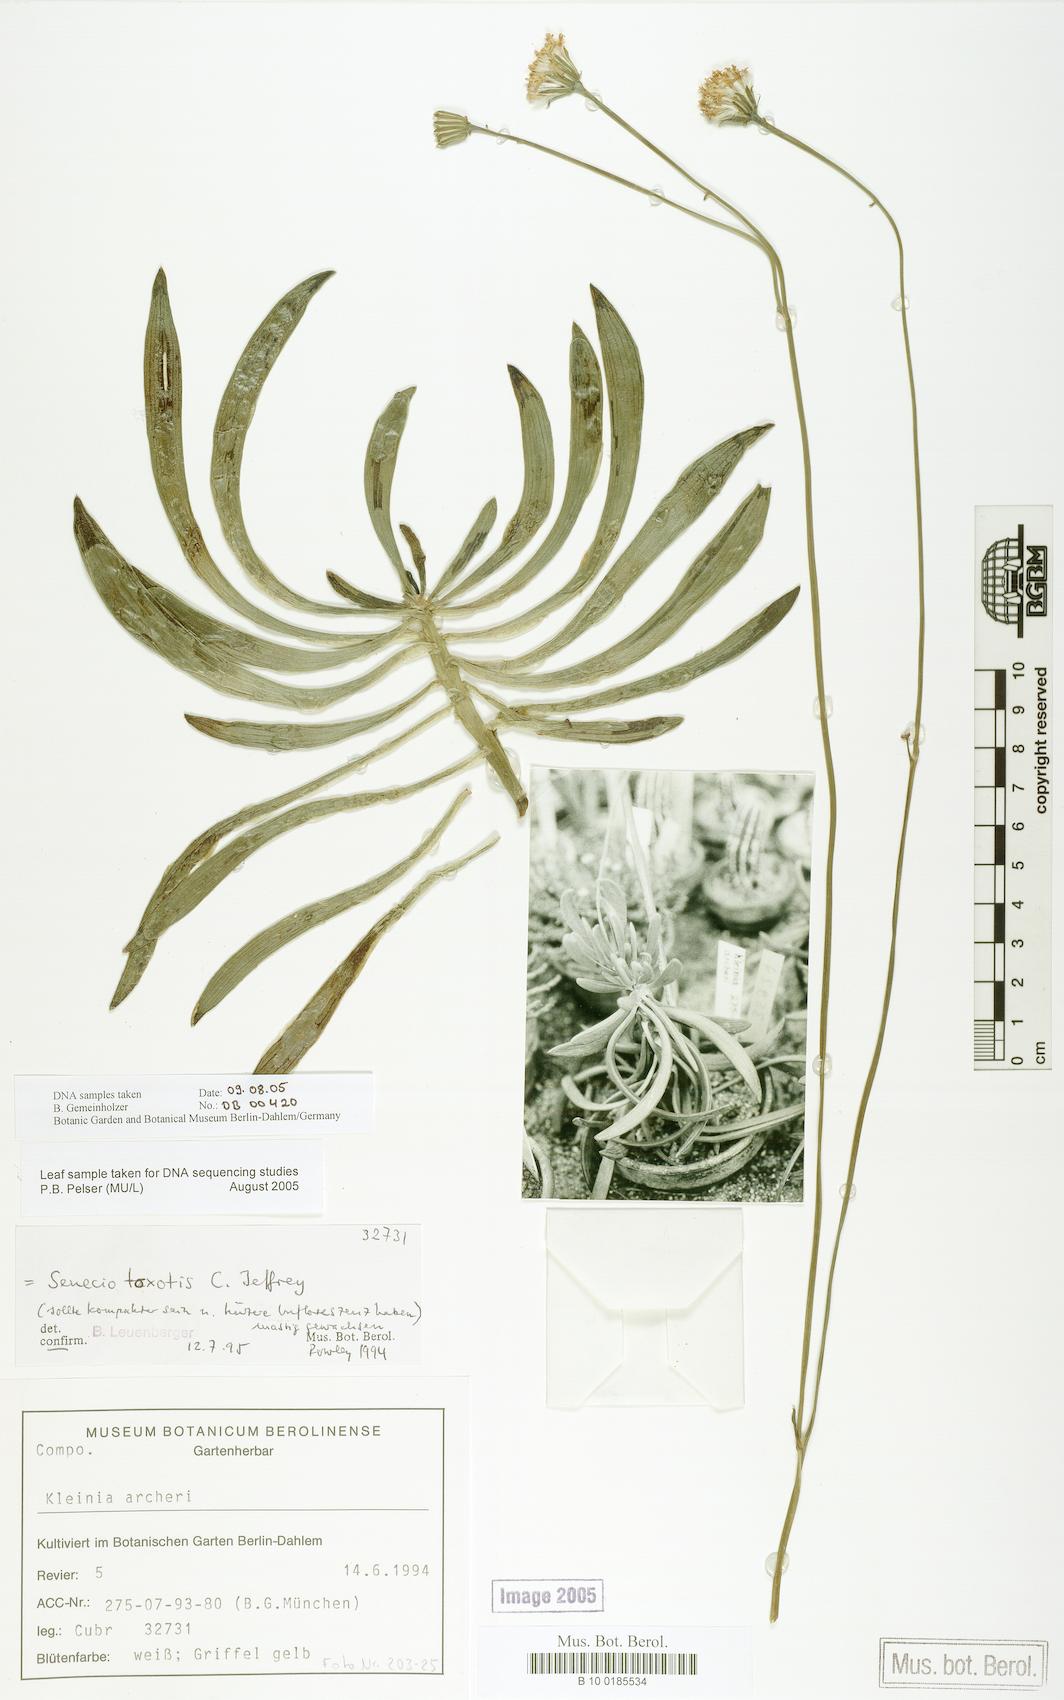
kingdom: Plantae
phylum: Tracheophyta
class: Magnoliopsida
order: Asterales
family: Asteraceae
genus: Curio
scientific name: Curio archeri
